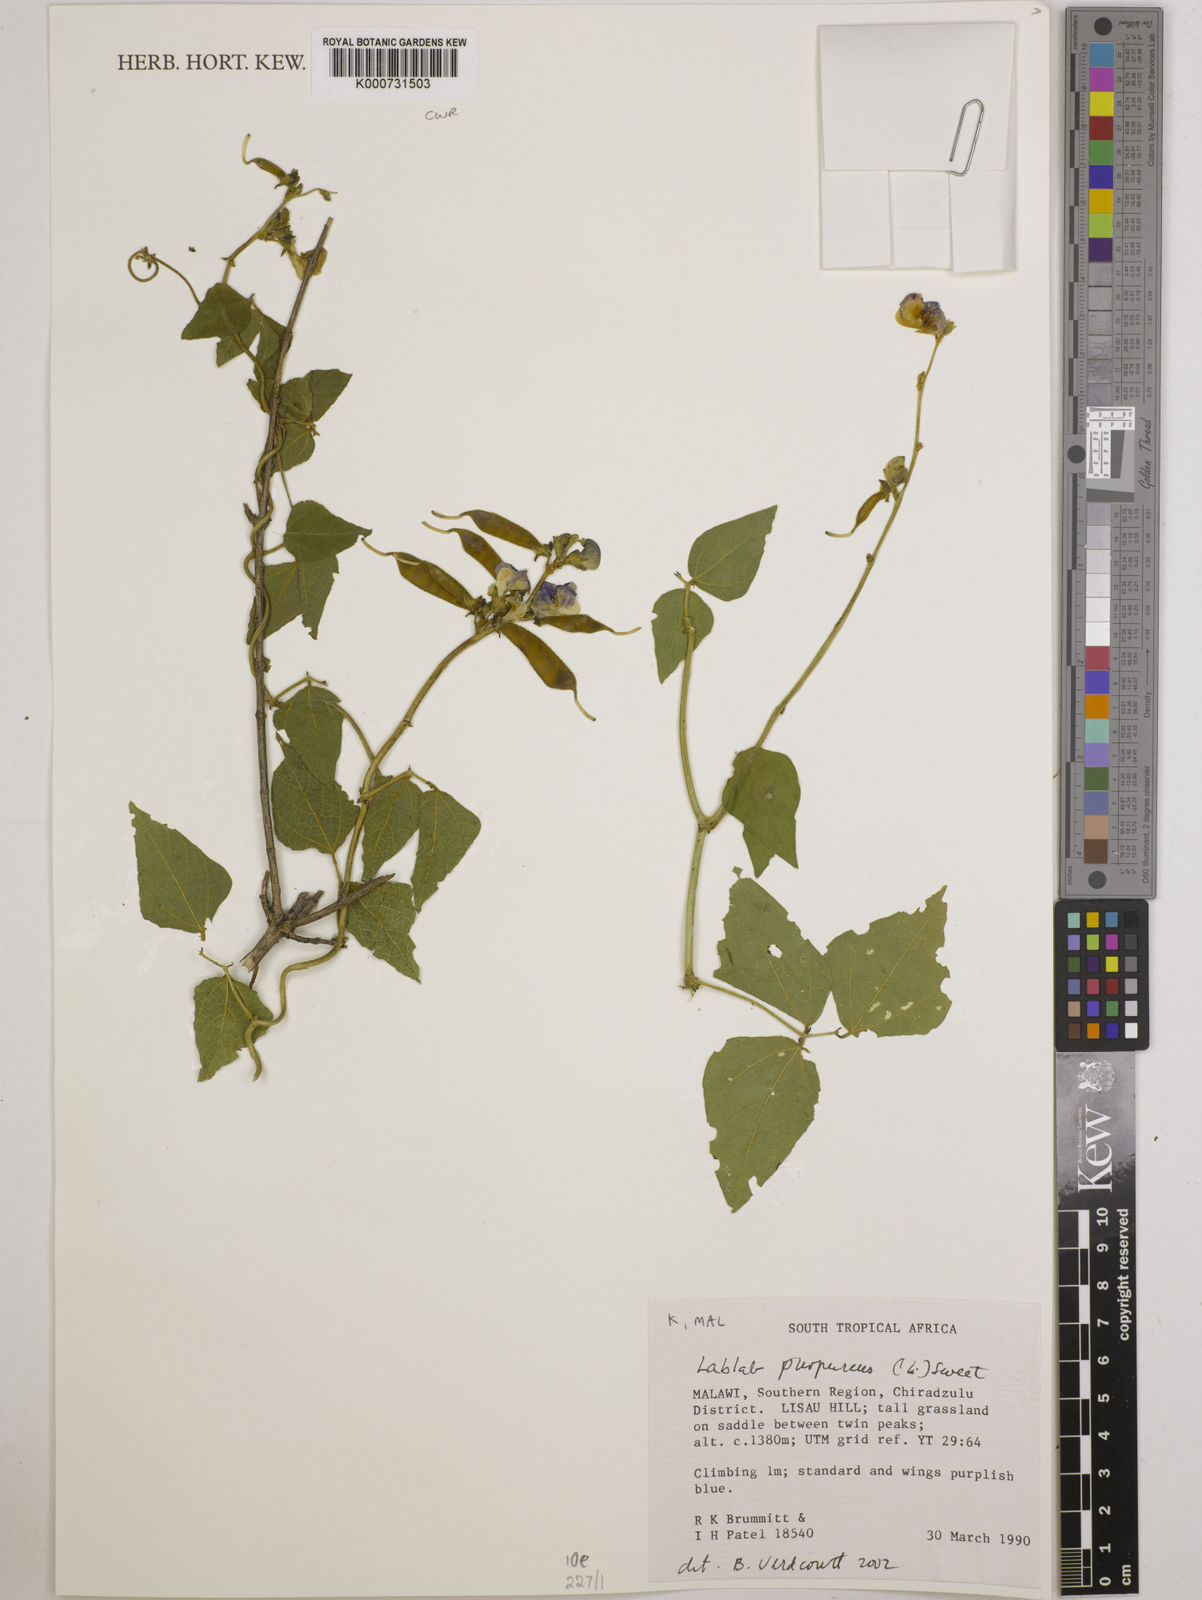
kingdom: Plantae
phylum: Tracheophyta
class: Magnoliopsida
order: Fabales
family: Fabaceae
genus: Lablab
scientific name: Lablab purpureus
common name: Lablab-bean
